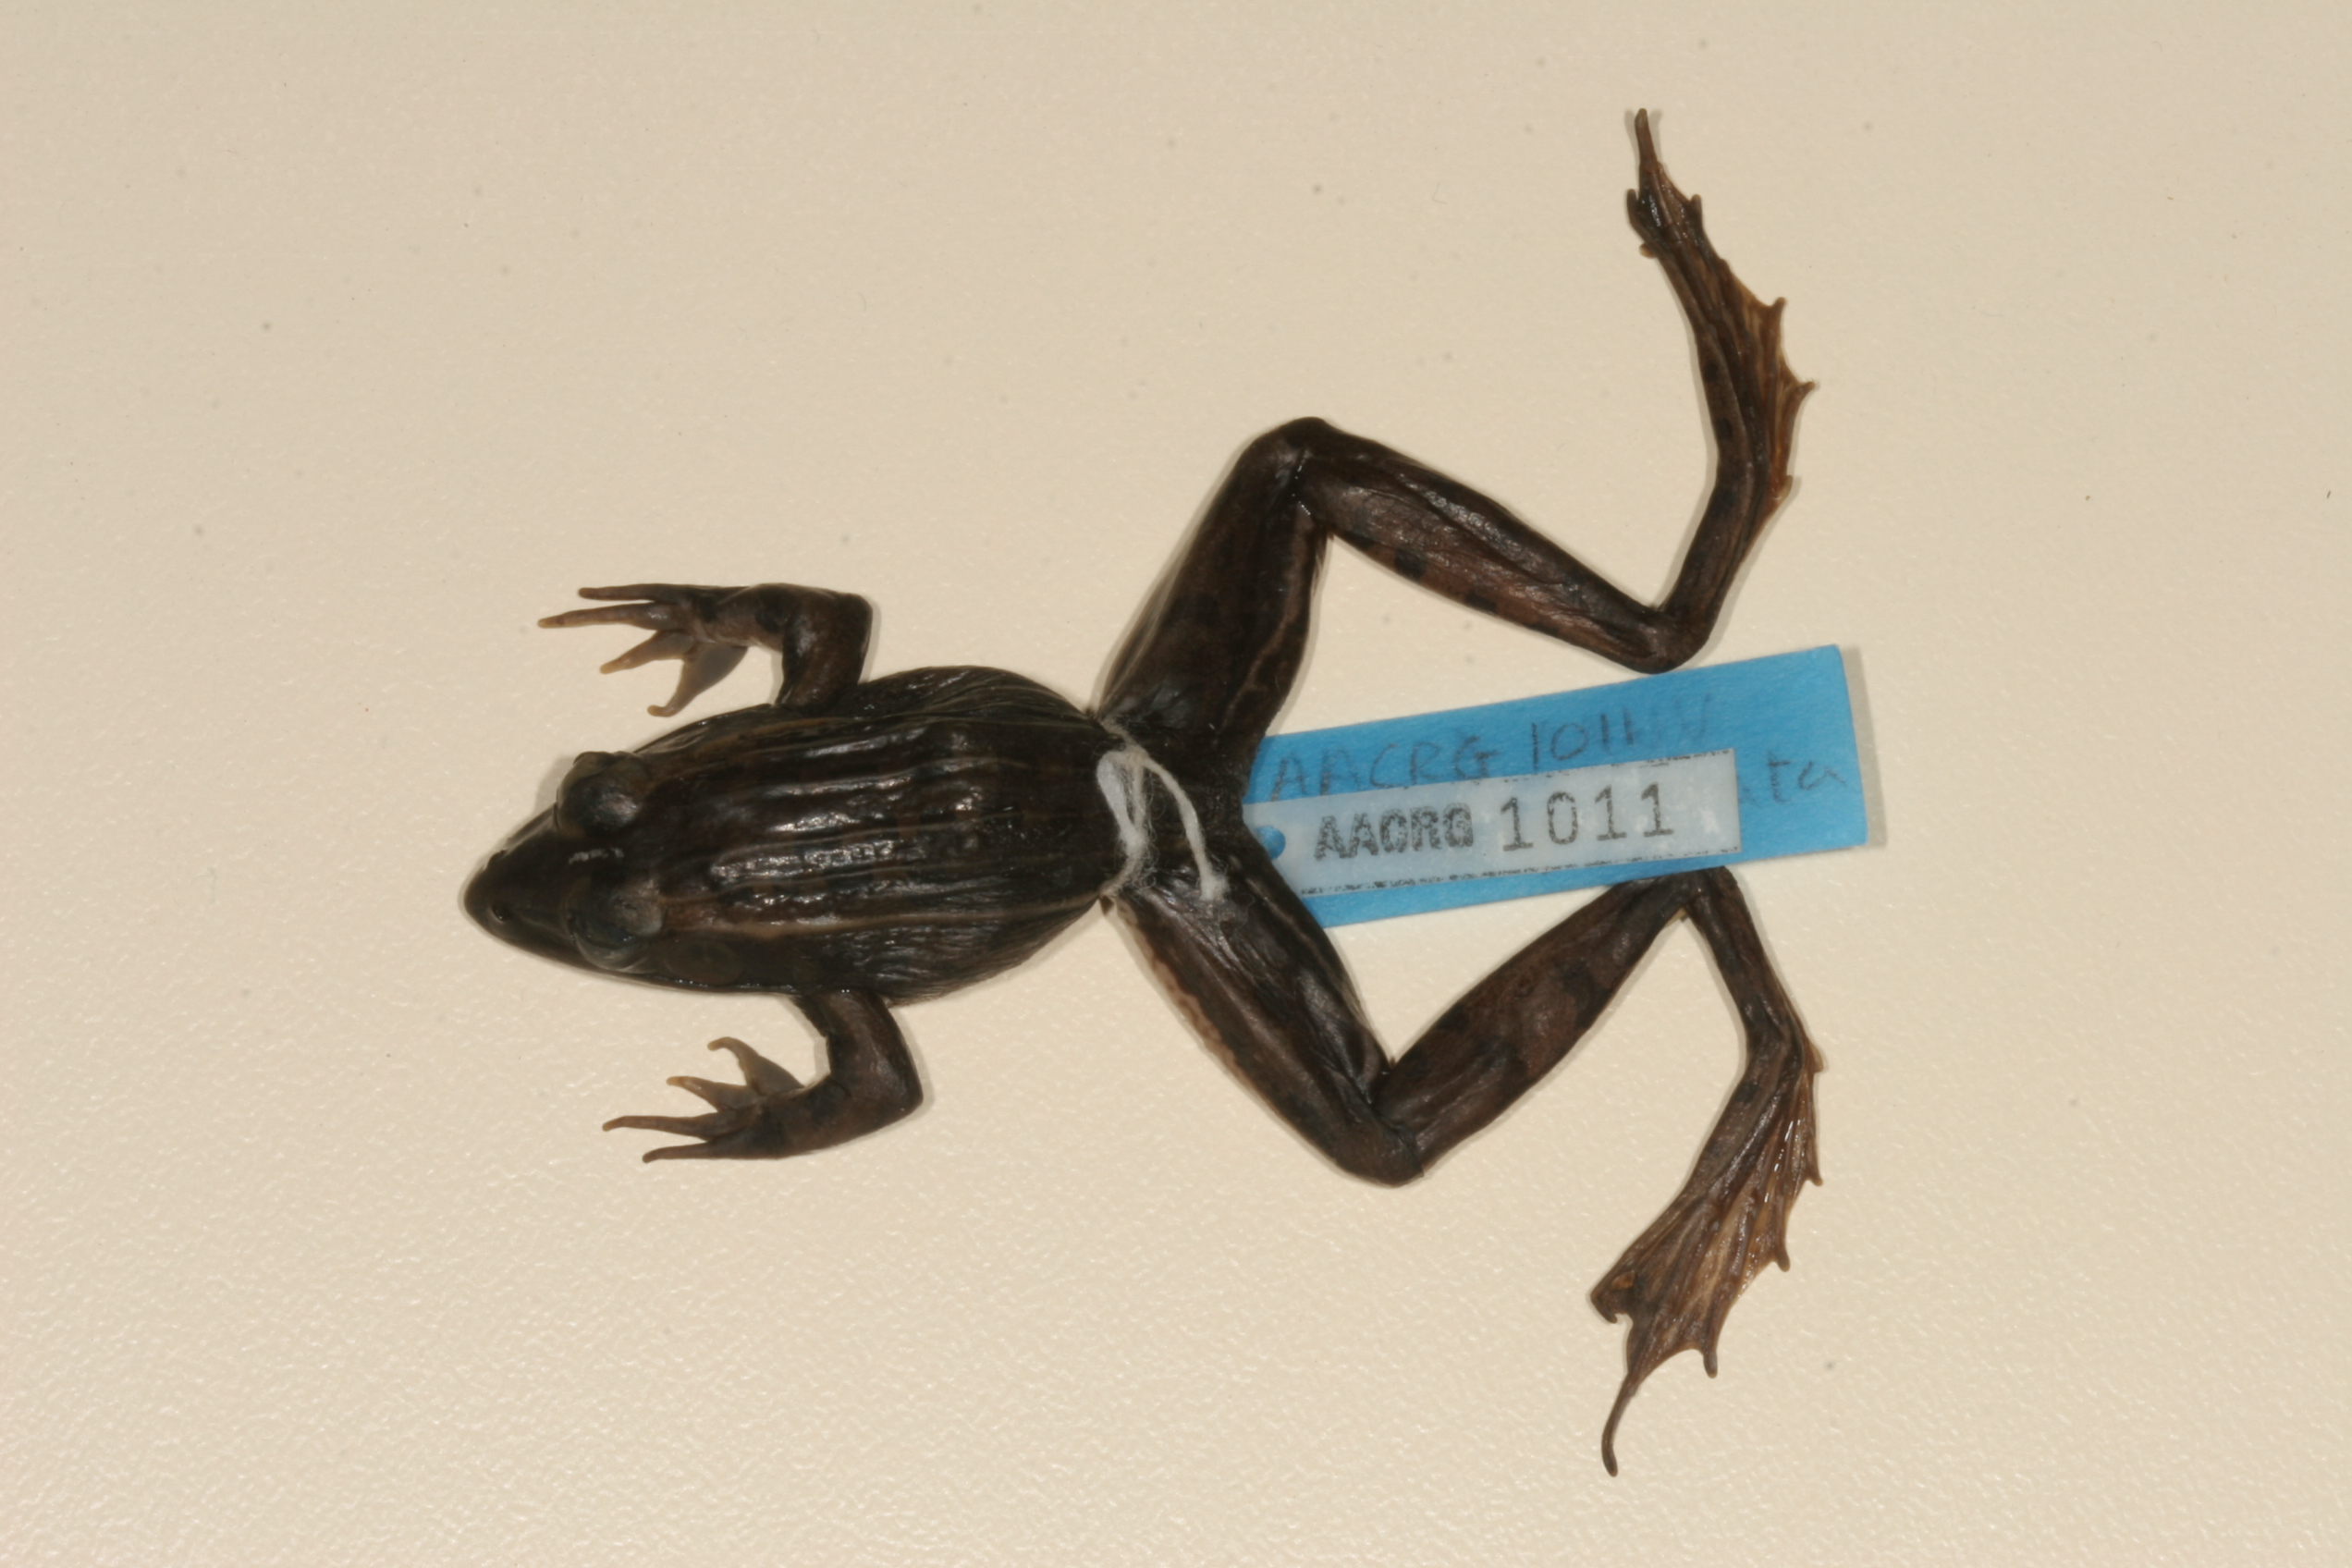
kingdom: Animalia
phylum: Chordata
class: Amphibia
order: Anura
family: Ptychadenidae
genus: Ptychadena
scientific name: Ptychadena subpunctata
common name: Bocage's grassland frog
